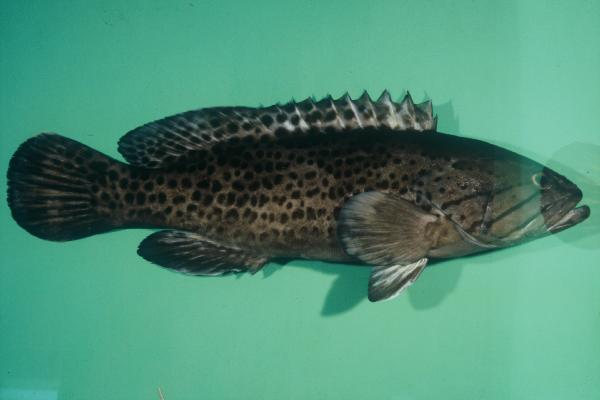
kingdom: Animalia
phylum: Chordata
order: Perciformes
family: Serranidae
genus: Epinephelus
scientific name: Epinephelus andersoni
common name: Catface rockcod
